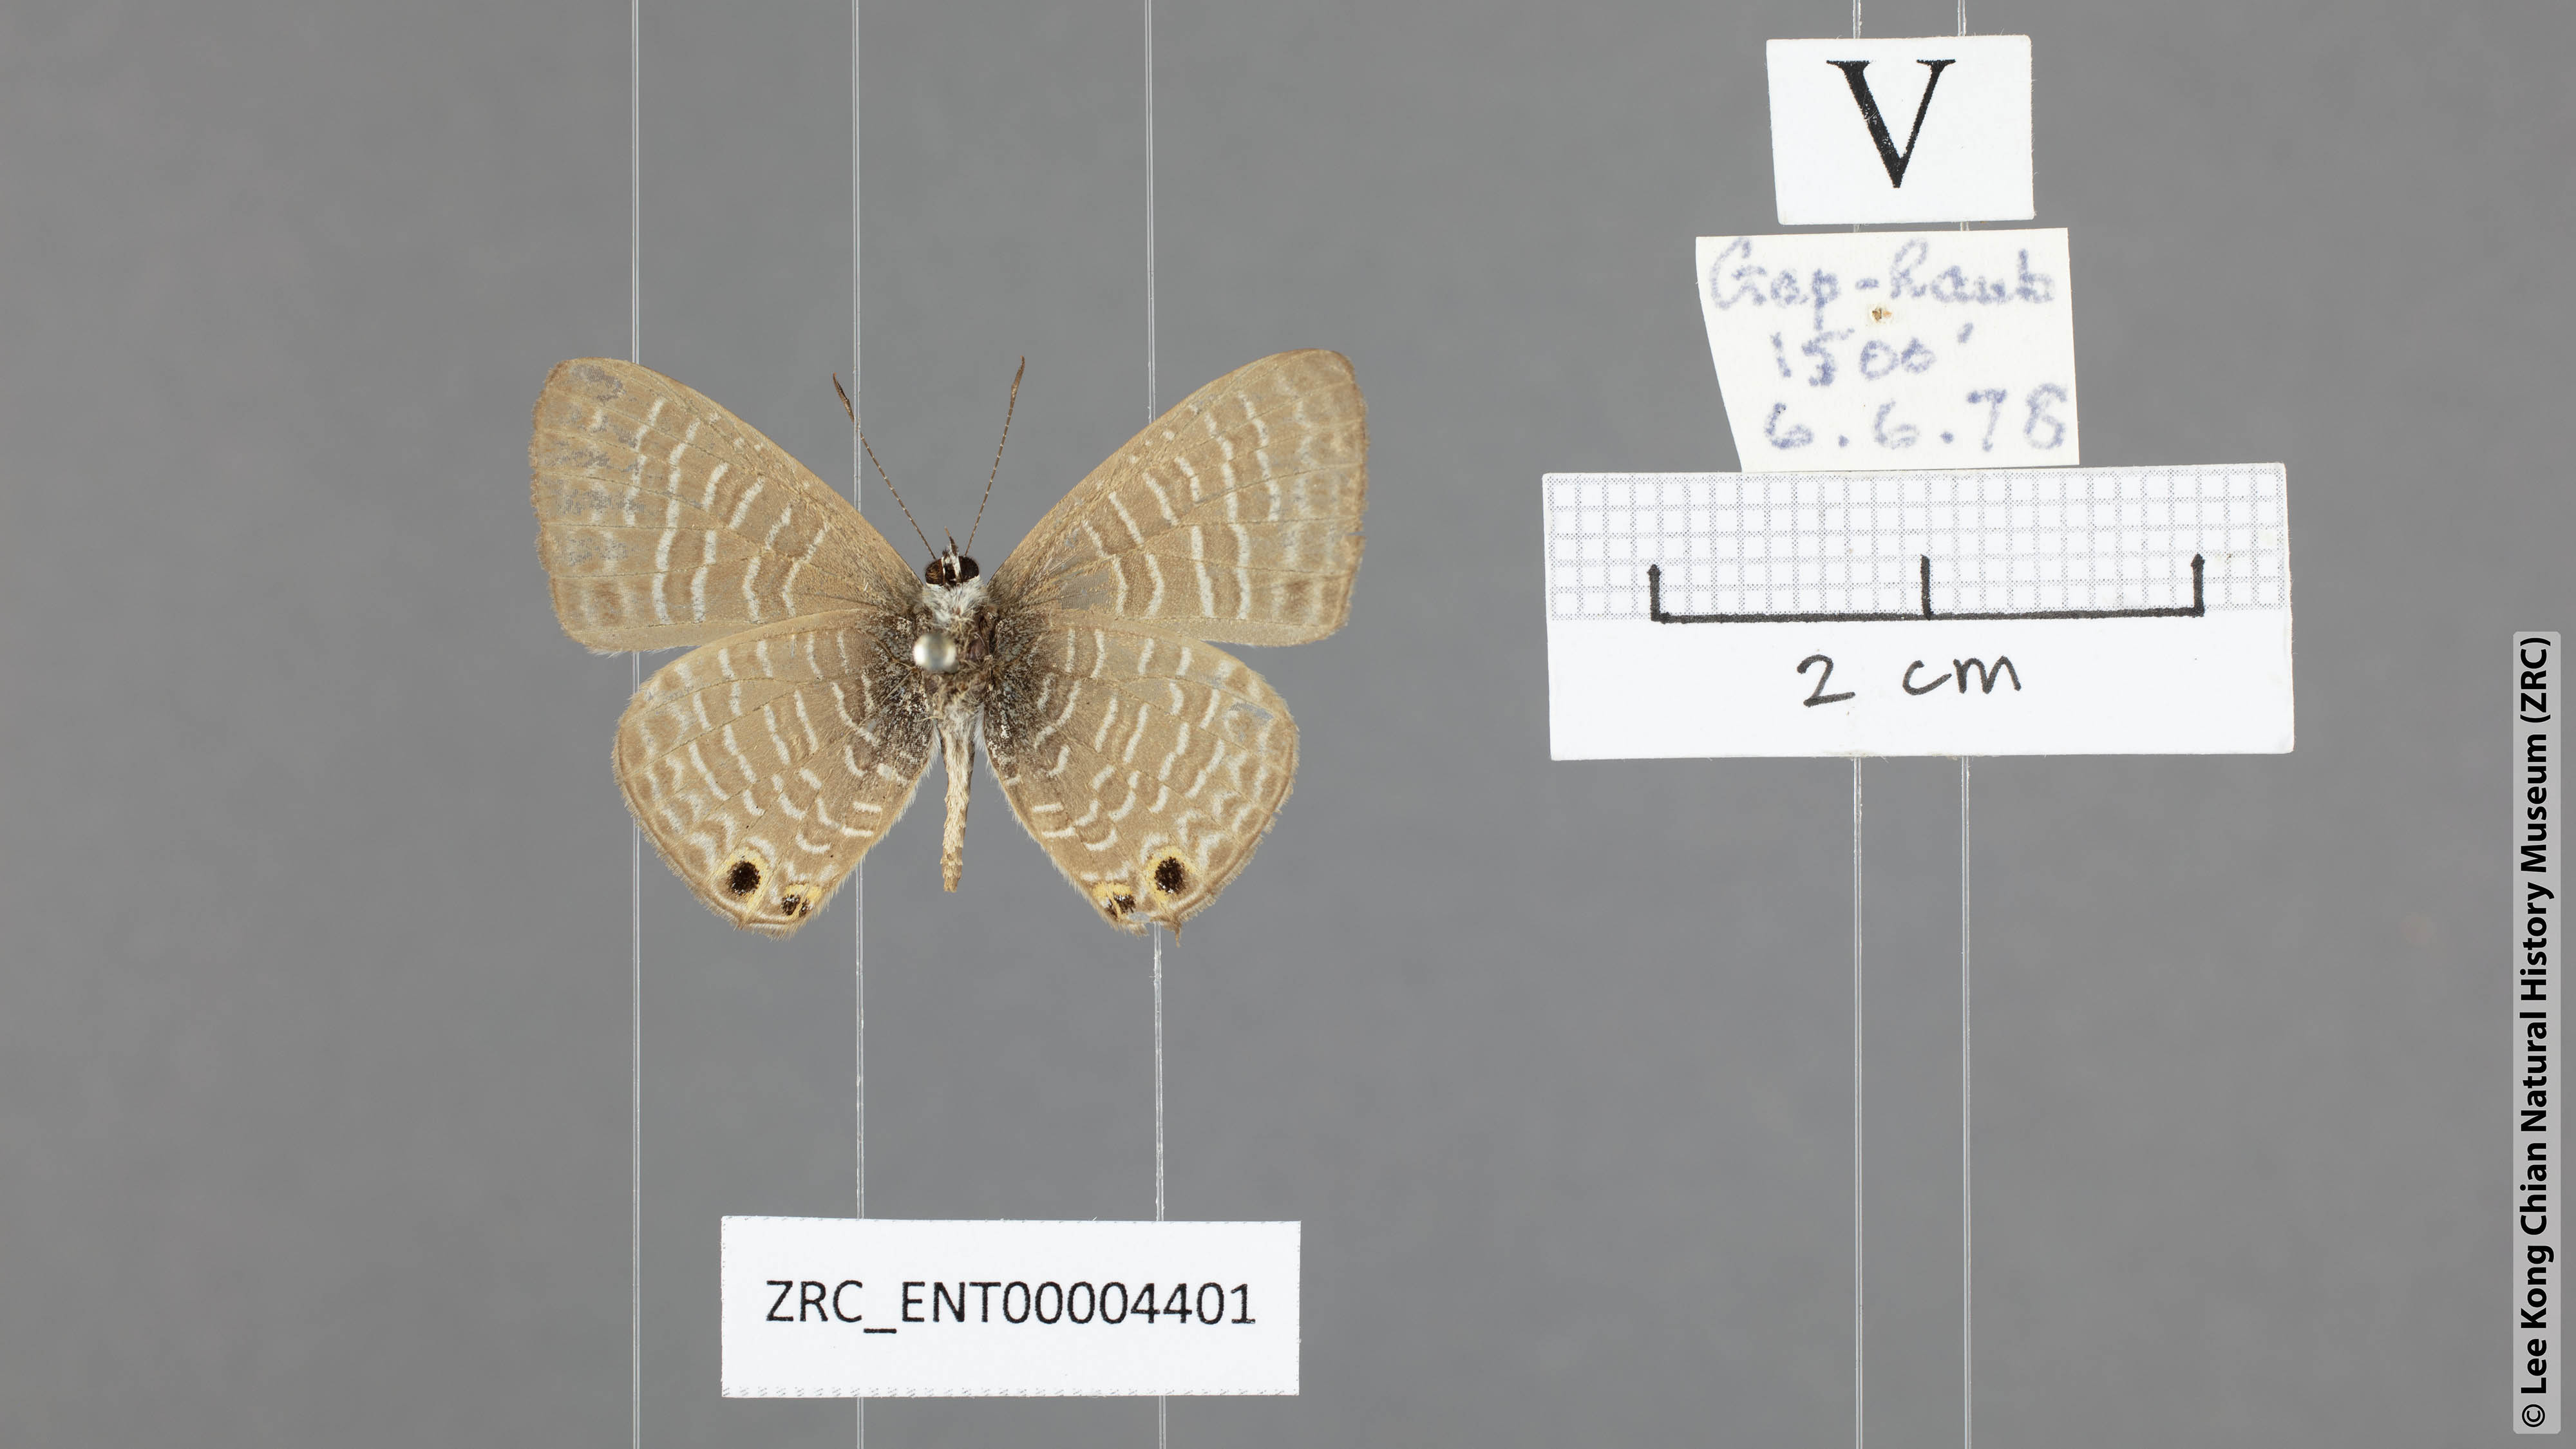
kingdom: Animalia
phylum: Arthropoda
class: Insecta
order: Lepidoptera
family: Lycaenidae
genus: Nacaduba
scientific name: Nacaduba kurava
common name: Transparent 6-line blue
